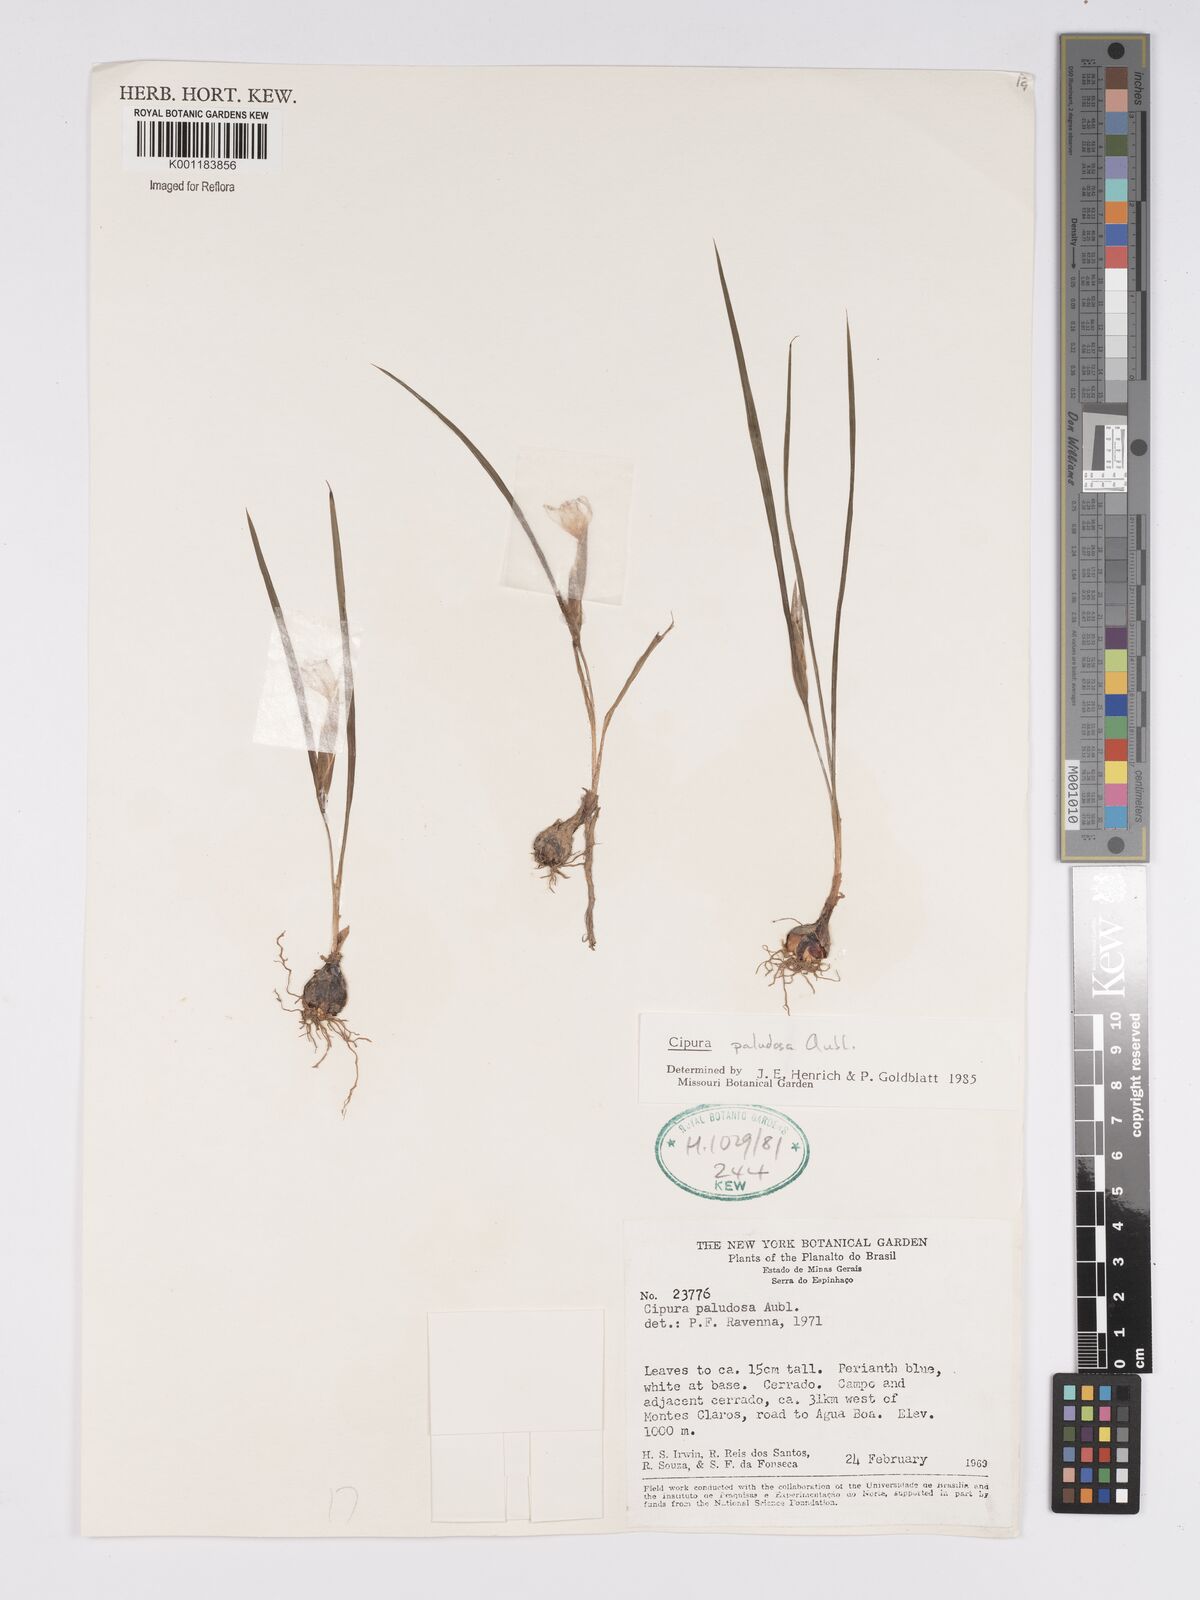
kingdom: Plantae
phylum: Tracheophyta
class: Liliopsida
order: Asparagales
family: Iridaceae
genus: Cipura
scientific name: Cipura paludosa
